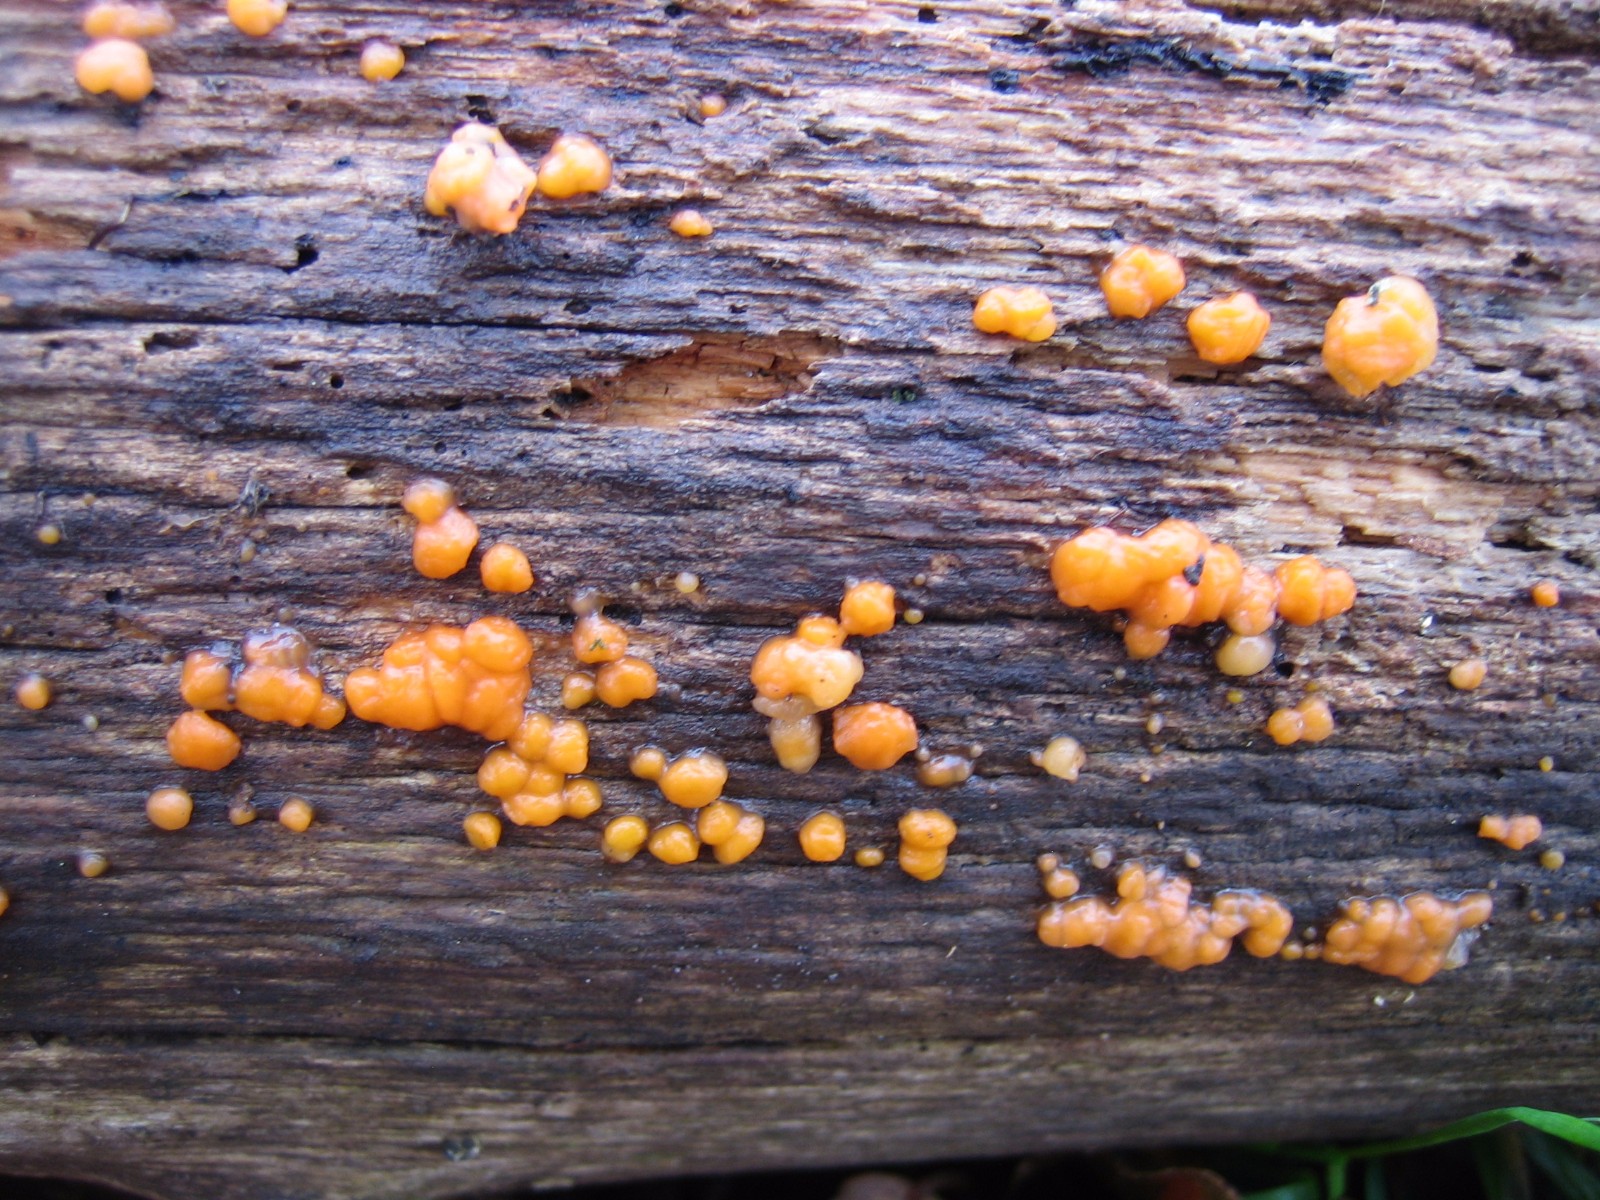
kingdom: Fungi
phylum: Basidiomycota
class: Dacrymycetes
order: Dacrymycetales
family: Dacrymycetaceae
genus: Dacrymyces
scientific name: Dacrymyces stillatus
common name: almindelig tåresvamp
